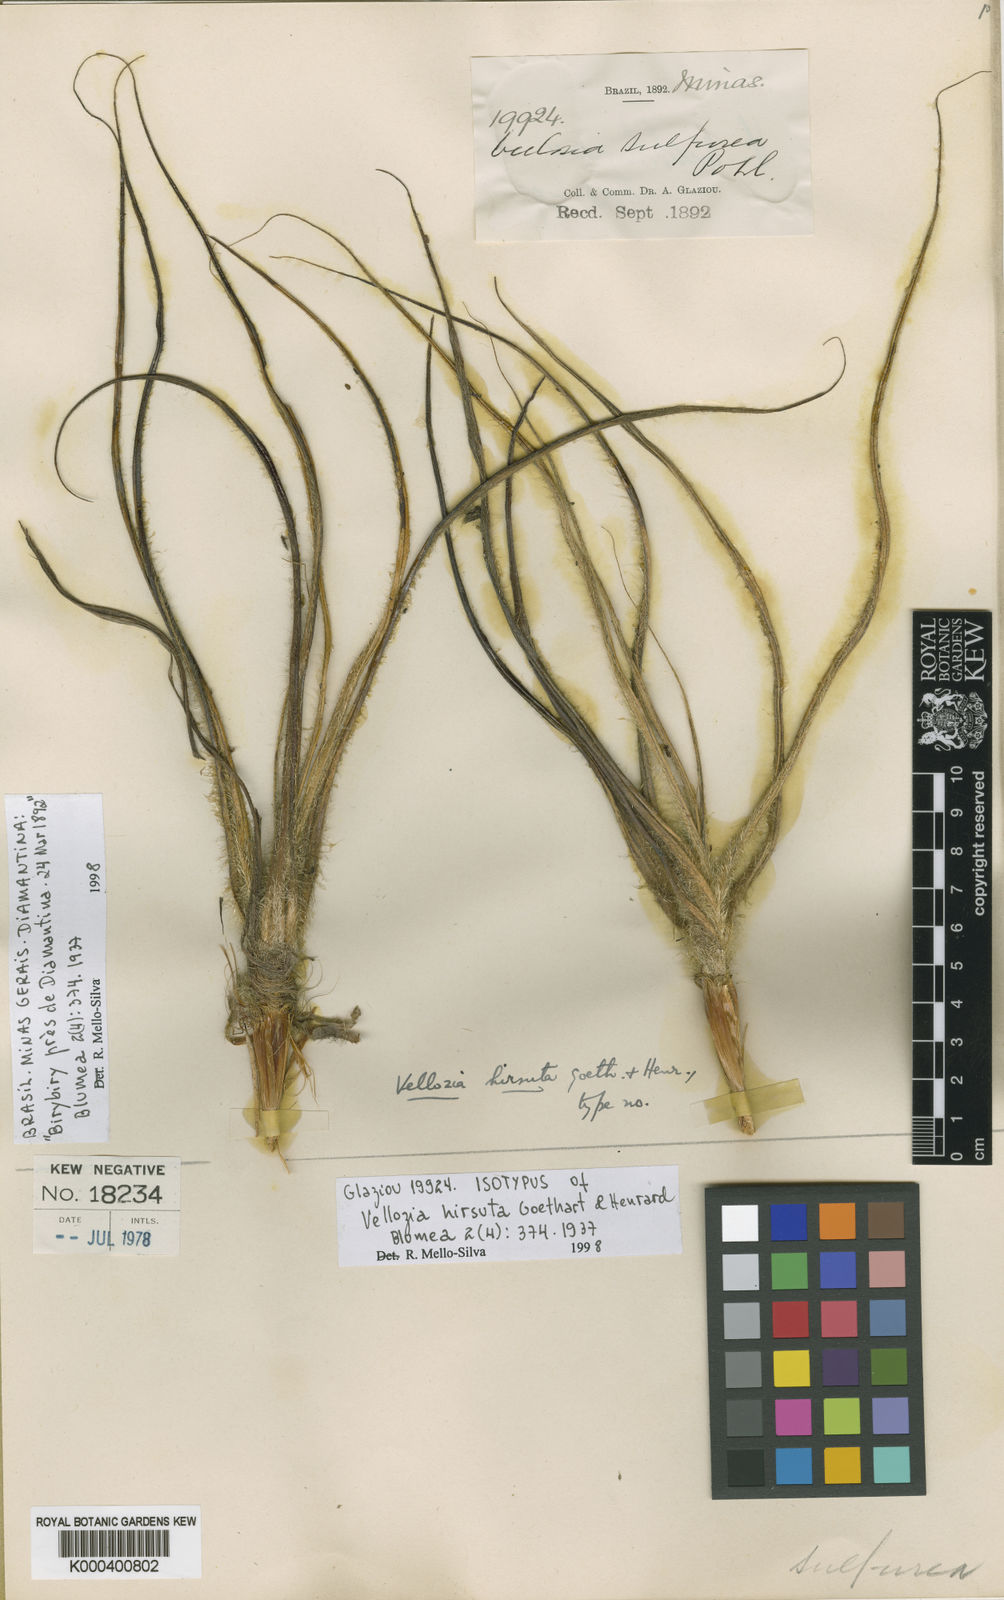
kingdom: Plantae
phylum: Tracheophyta
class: Liliopsida
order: Pandanales
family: Velloziaceae
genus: Vellozia
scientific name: Vellozia hirsuta
